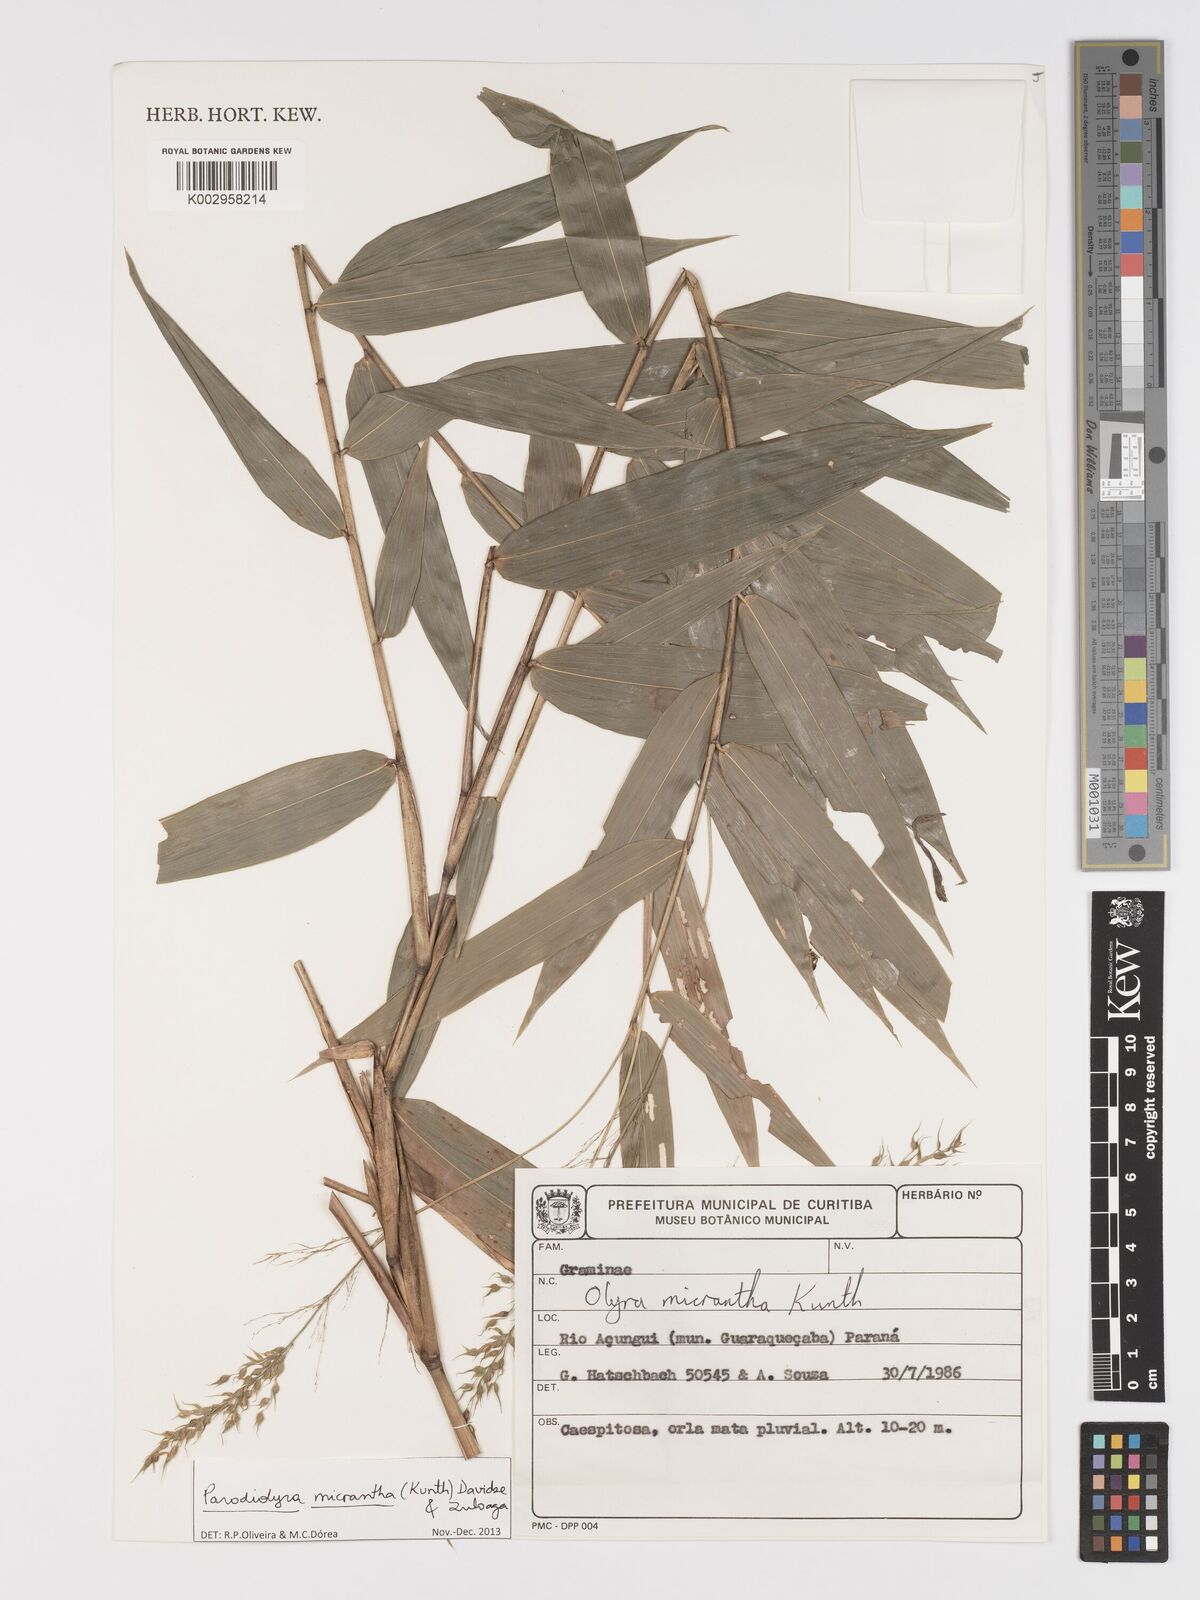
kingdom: Plantae
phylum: Tracheophyta
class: Liliopsida
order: Poales
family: Poaceae
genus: Taquara
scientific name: Taquara micrantha
